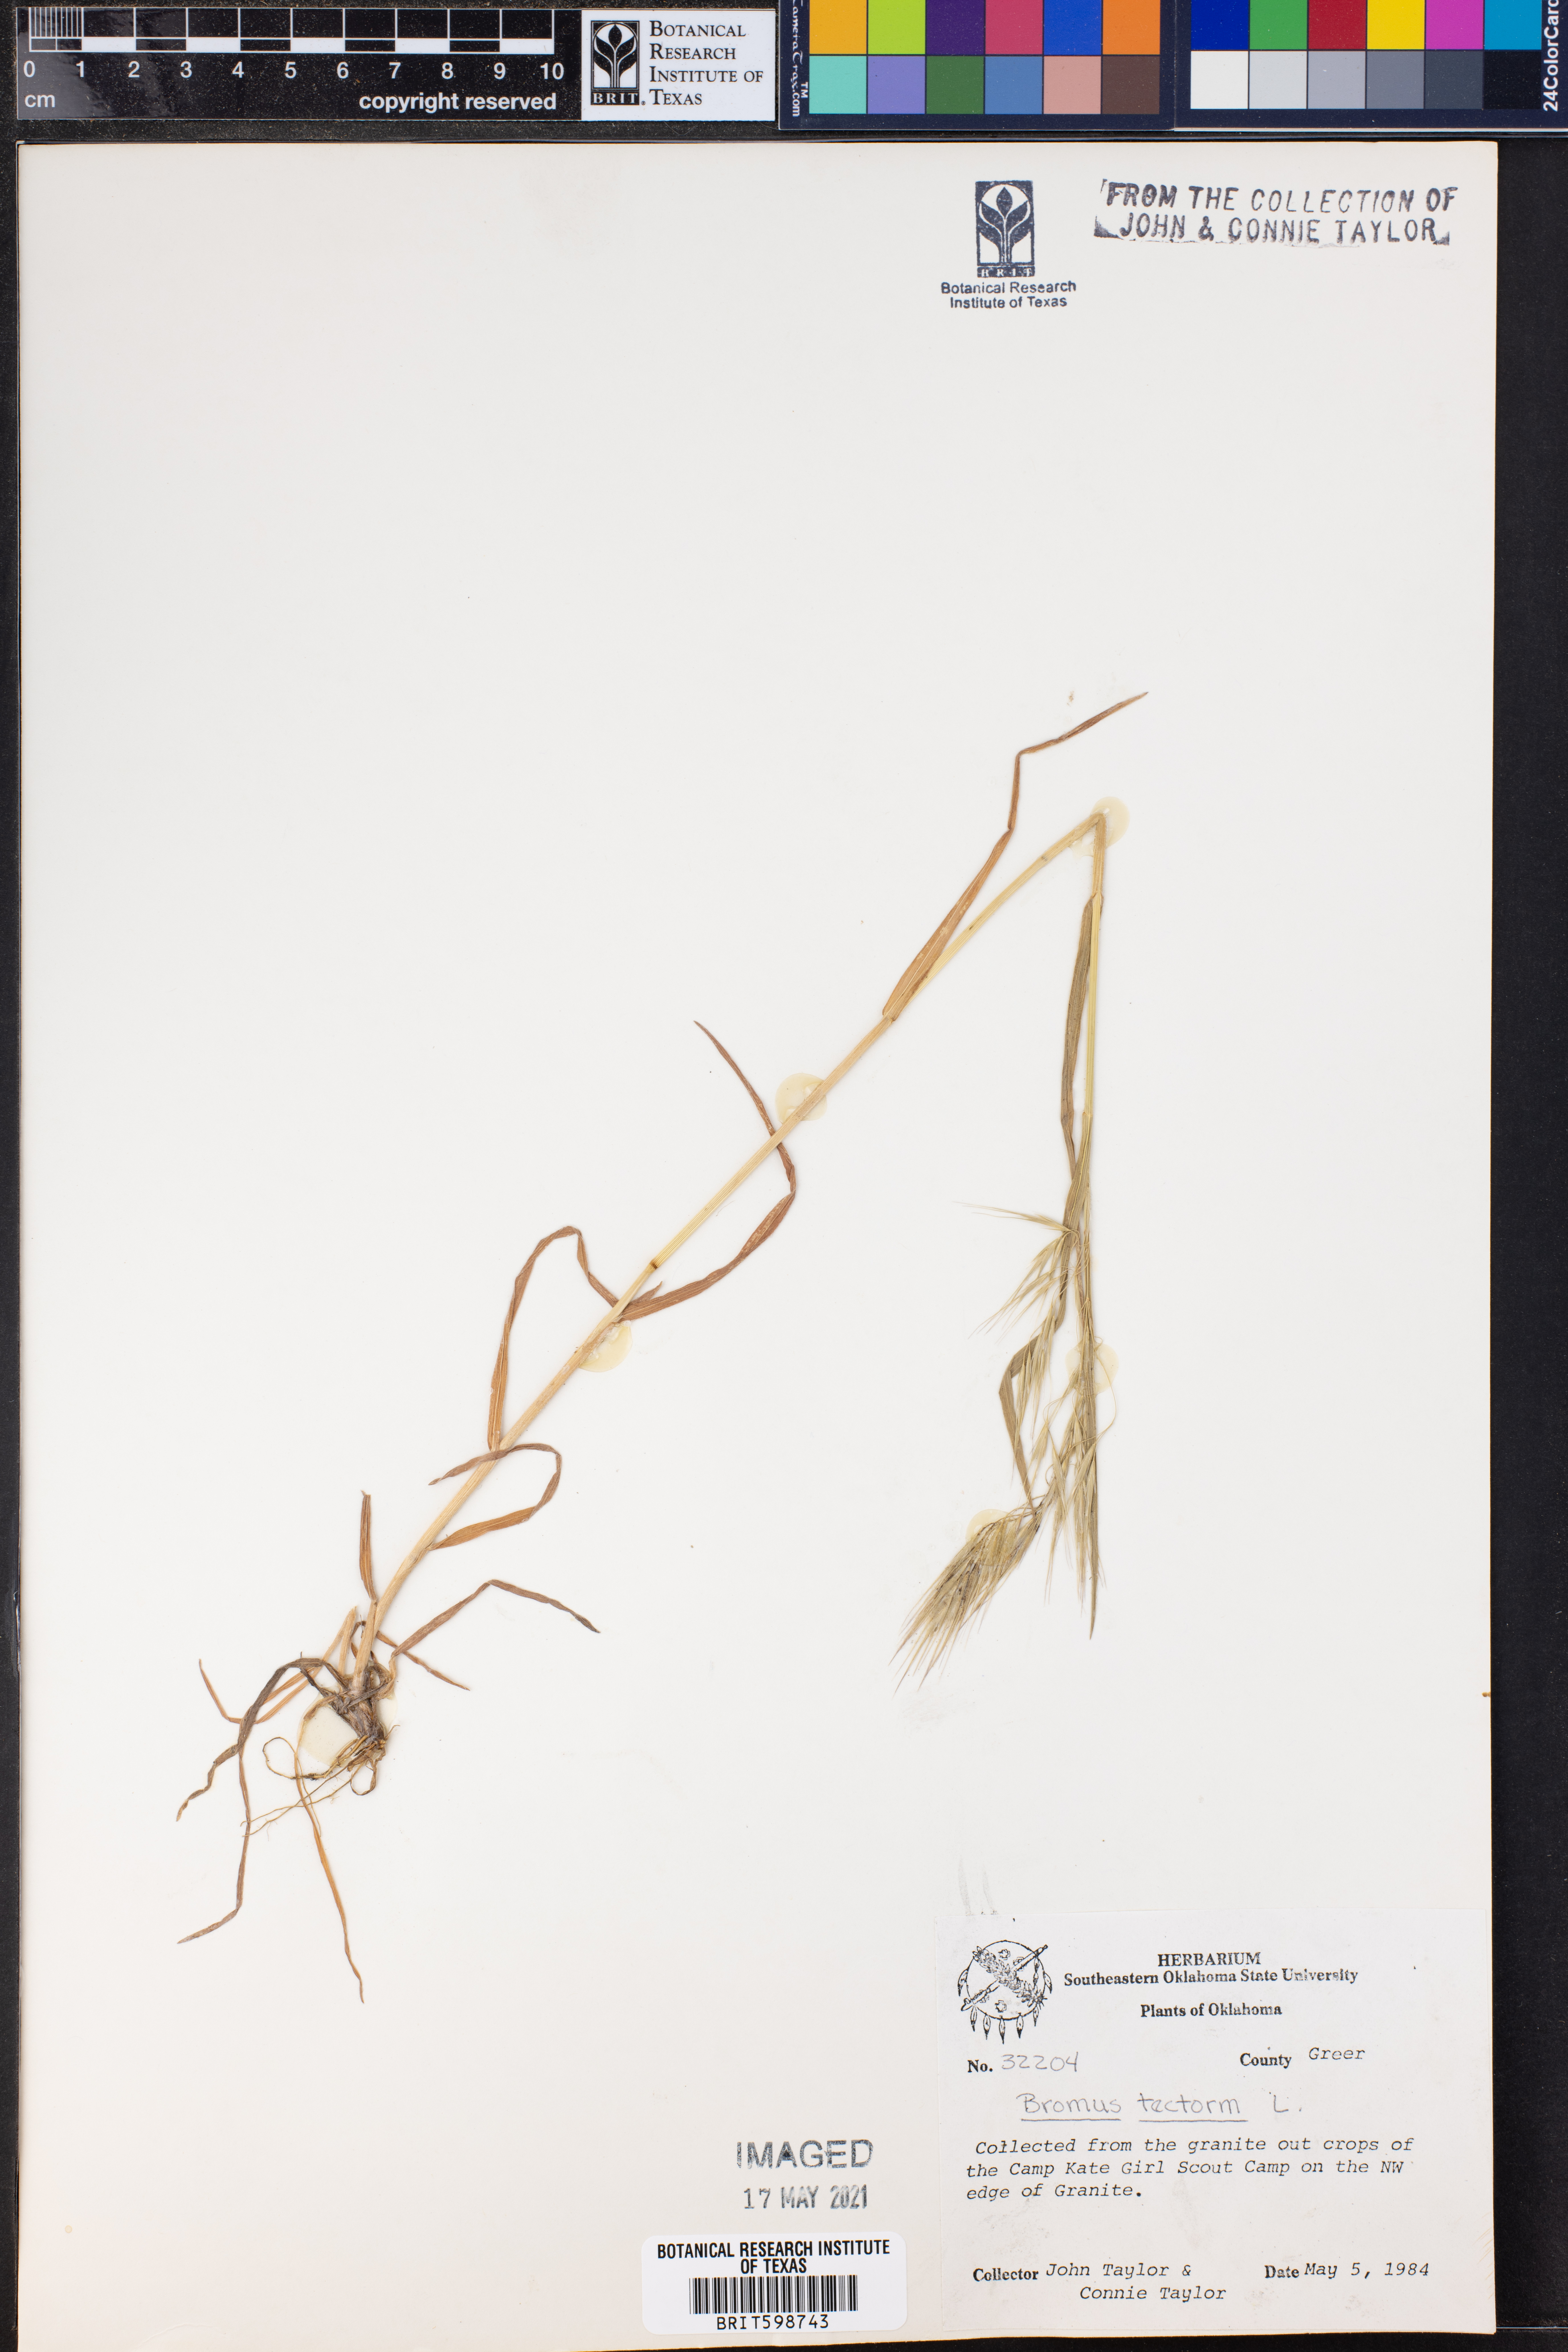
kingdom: Plantae
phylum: Tracheophyta
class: Liliopsida
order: Poales
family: Poaceae
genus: Bromus
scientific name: Bromus tectorum
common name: Cheatgrass
